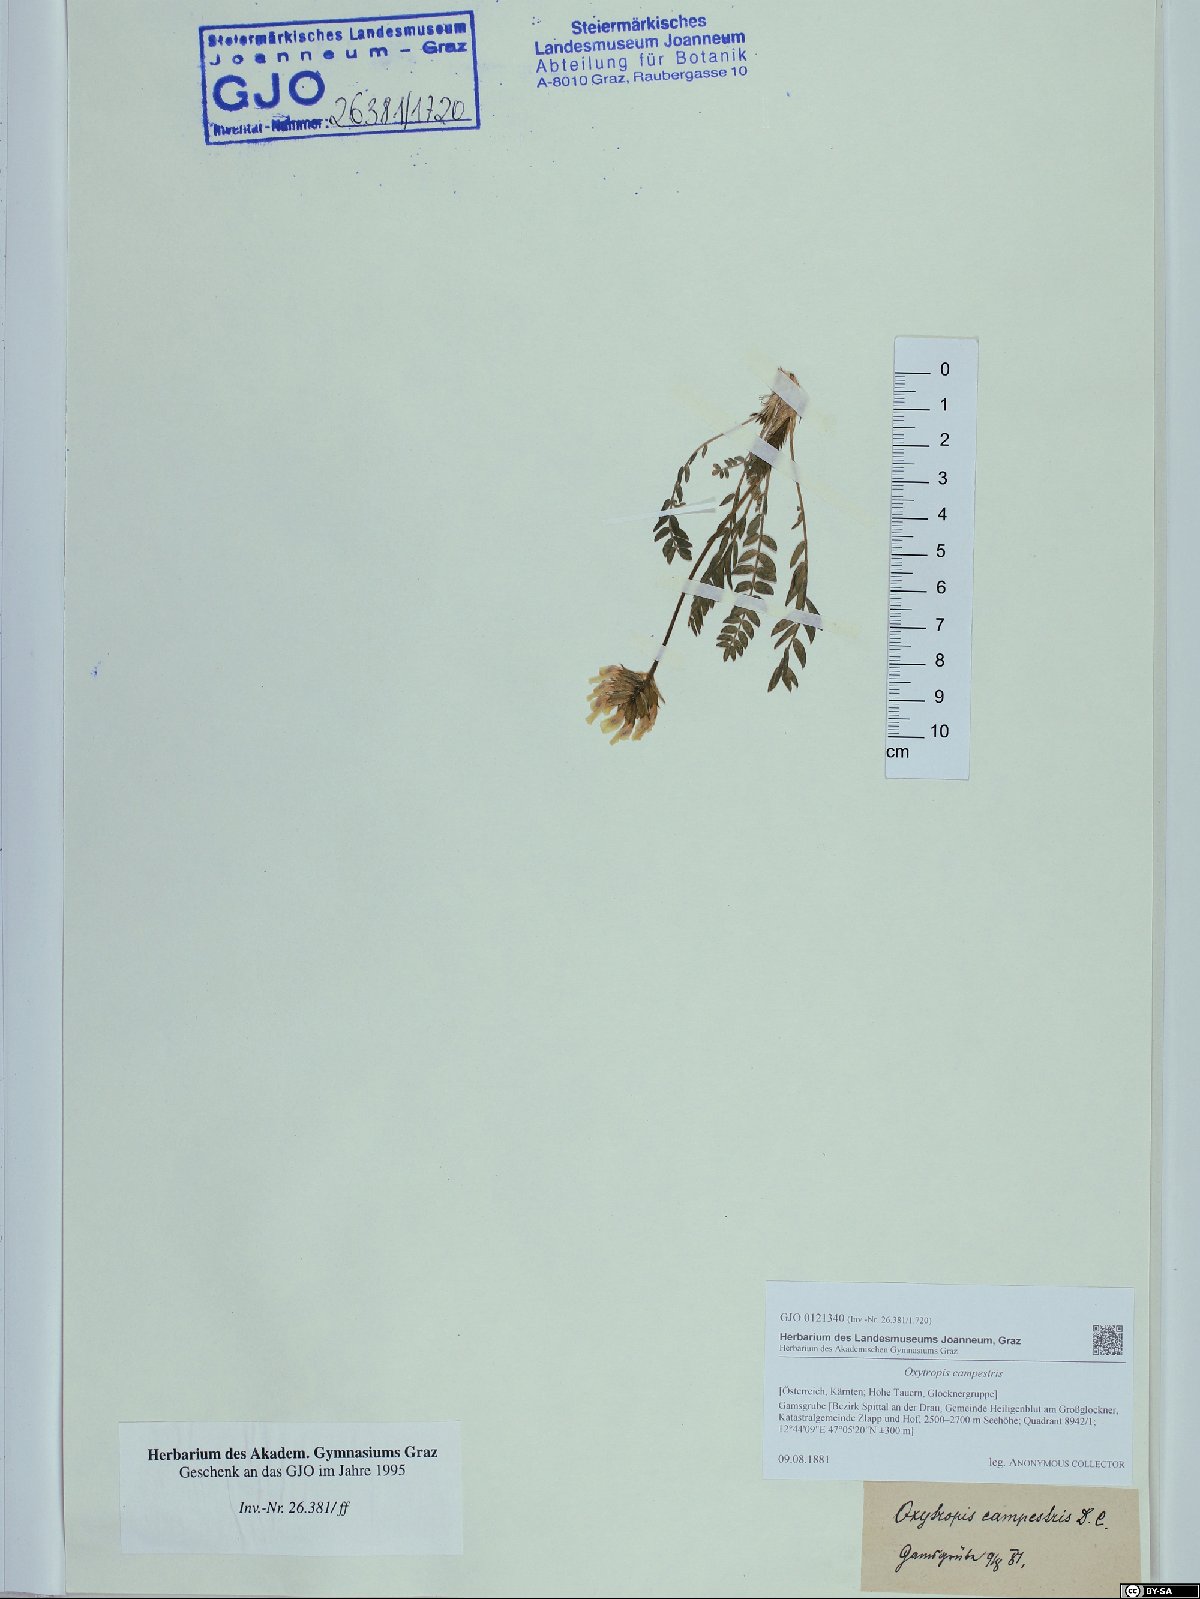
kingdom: Plantae
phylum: Tracheophyta
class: Magnoliopsida
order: Fabales
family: Fabaceae
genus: Oxytropis
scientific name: Oxytropis campestris
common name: Field locoweed
